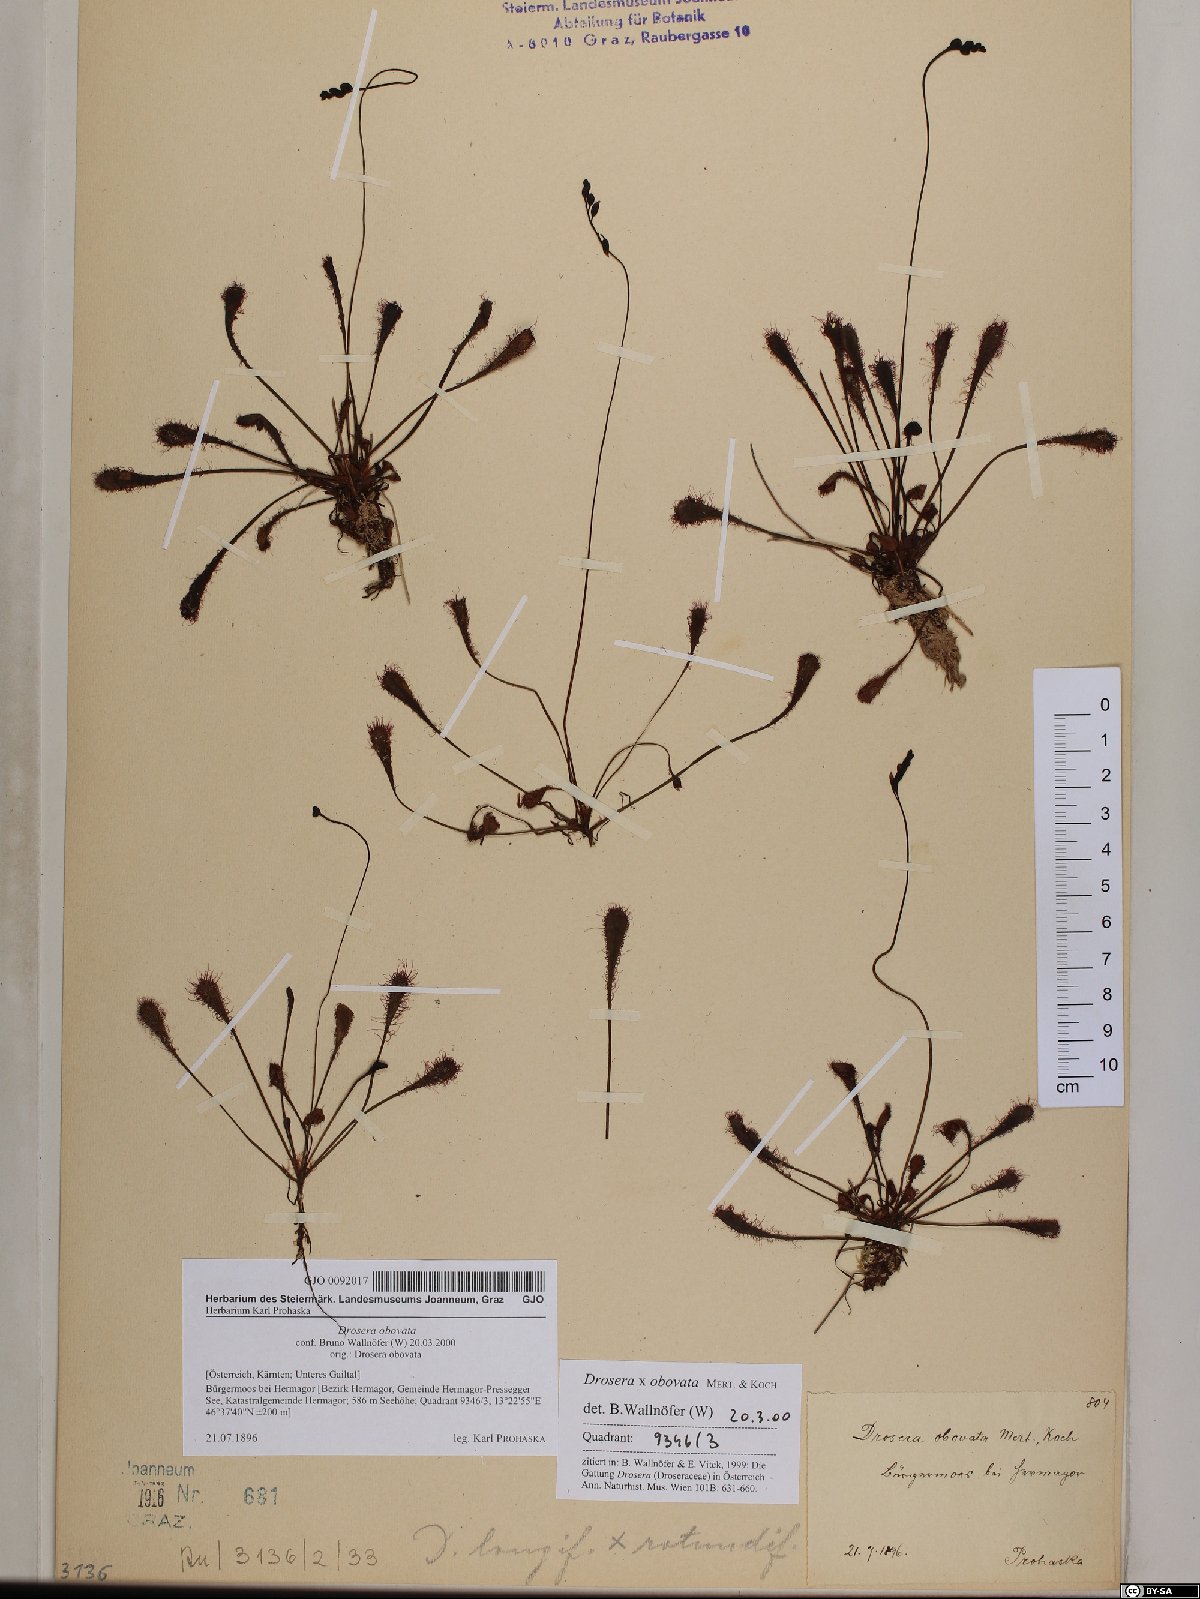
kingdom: Plantae
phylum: Tracheophyta
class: Magnoliopsida
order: Caryophyllales
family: Droseraceae
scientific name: Droseraceae
